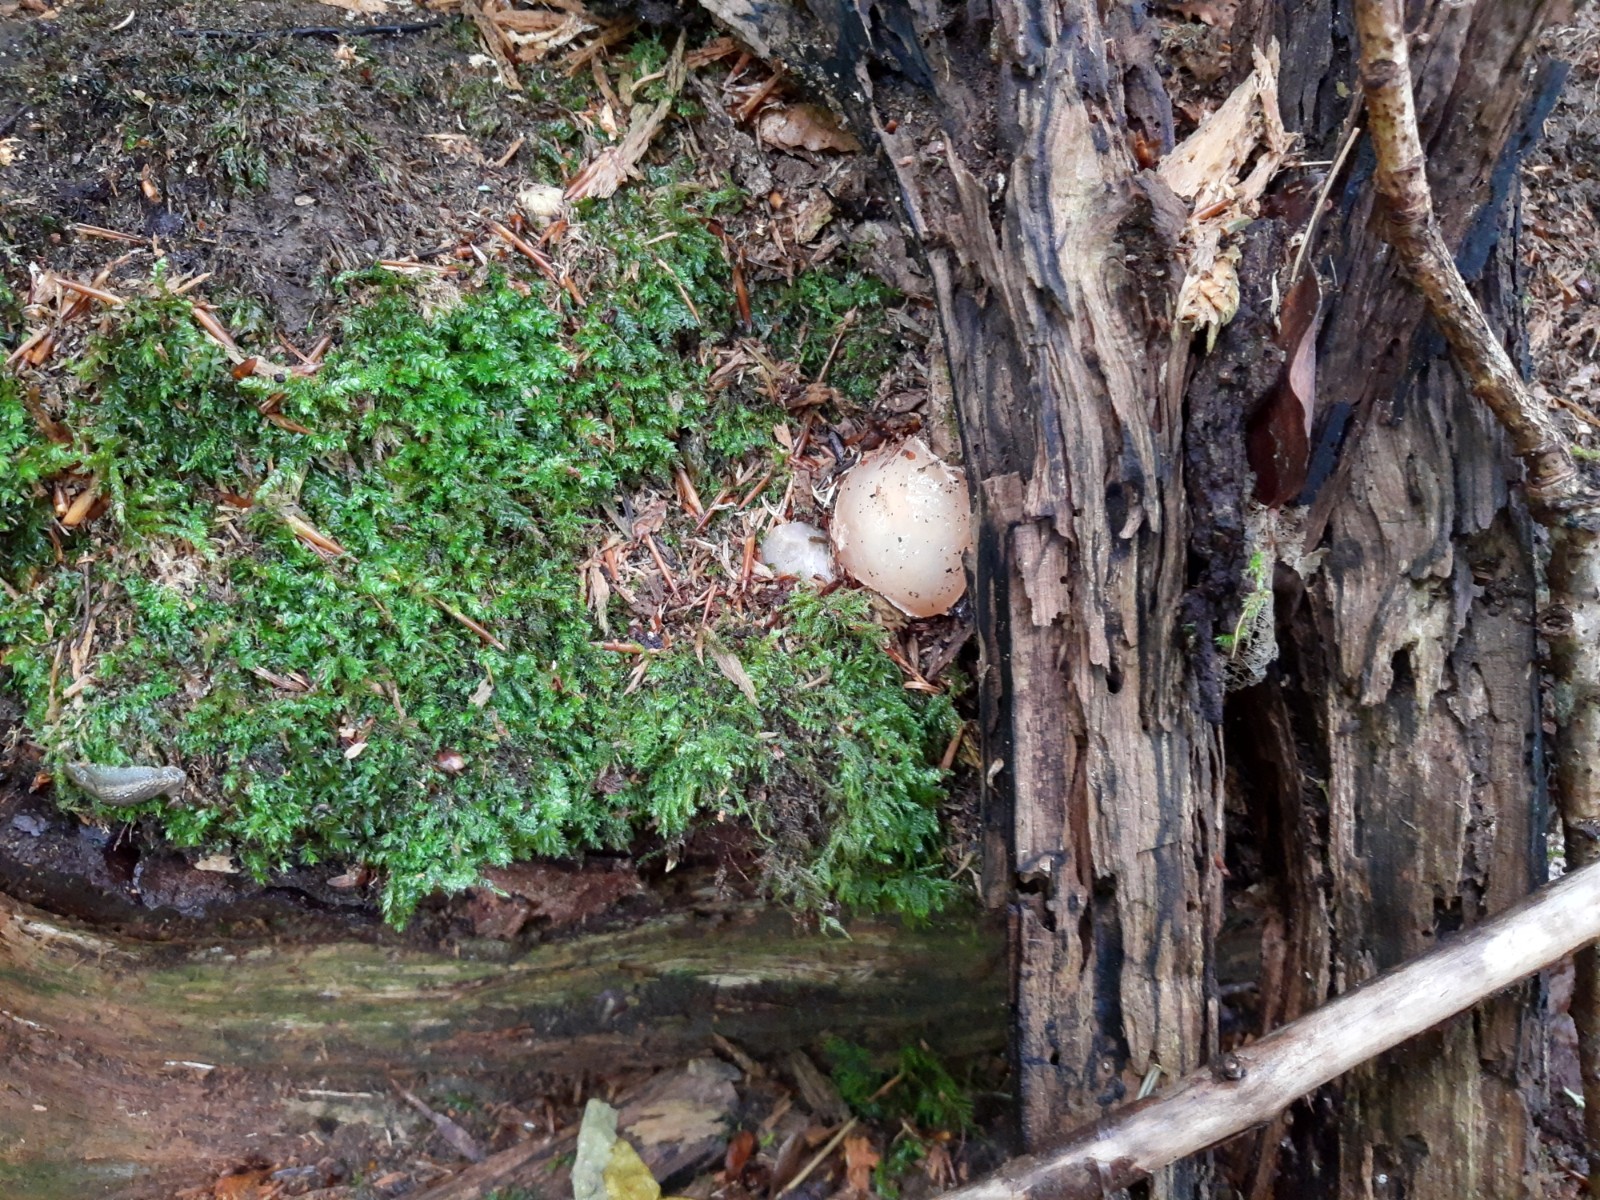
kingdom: Fungi
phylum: Basidiomycota
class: Agaricomycetes
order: Phallales
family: Phallaceae
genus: Phallus
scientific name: Phallus impudicus
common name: almindelig stinksvamp
